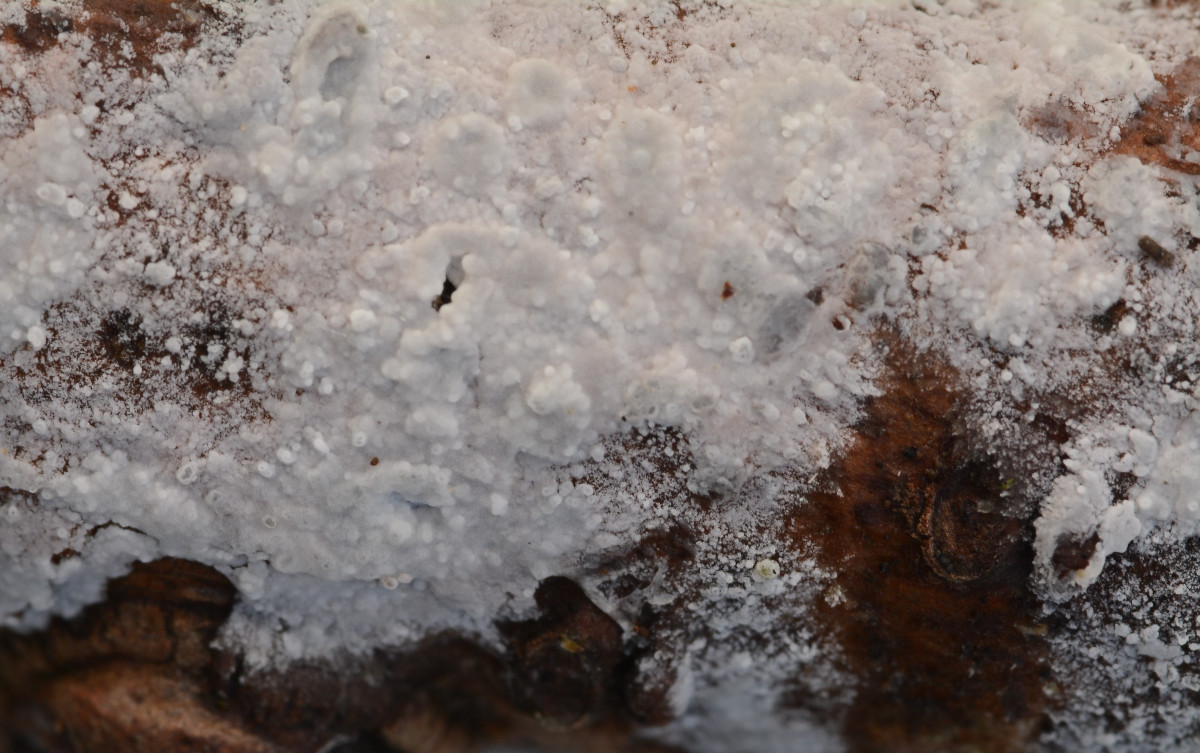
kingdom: Fungi
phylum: Basidiomycota
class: Agaricomycetes
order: Polyporales
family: Meruliaceae
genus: Hypochnicium
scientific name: Hypochnicium lundellii
